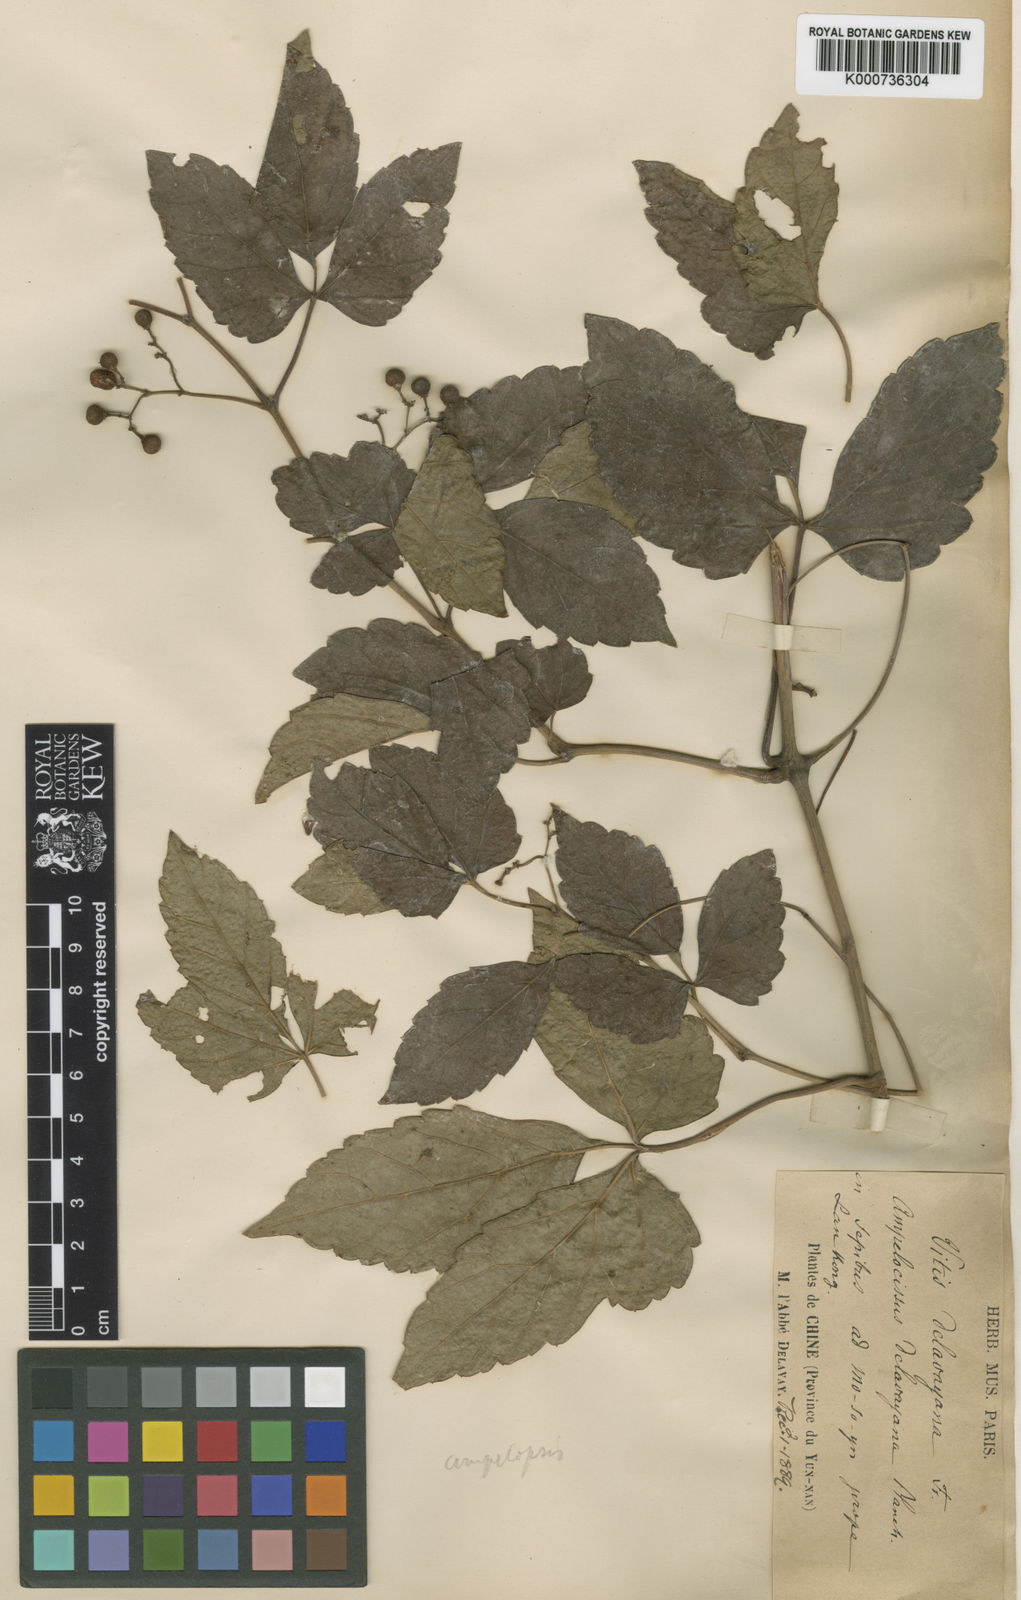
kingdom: Plantae
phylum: Tracheophyta
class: Magnoliopsida
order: Vitales
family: Vitaceae
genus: Ampelopsis
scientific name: Ampelopsis delavayana
